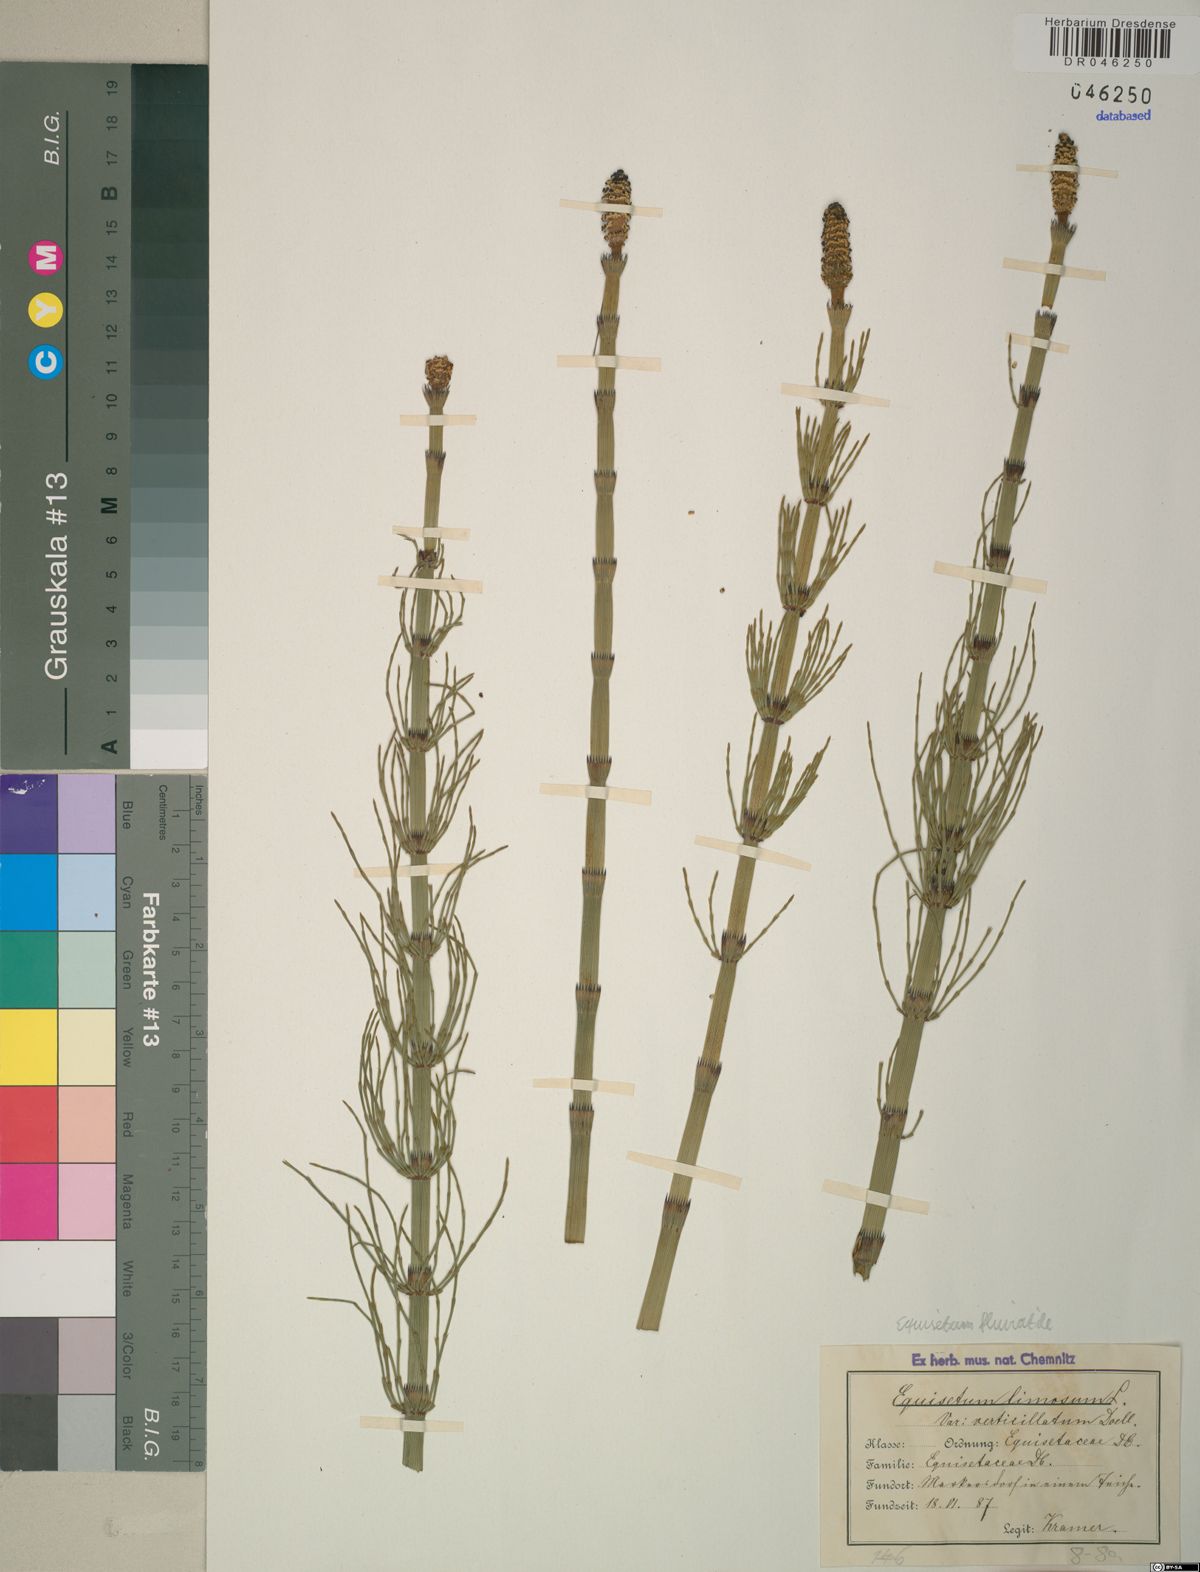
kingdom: Plantae
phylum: Tracheophyta
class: Polypodiopsida
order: Equisetales
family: Equisetaceae
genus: Equisetum
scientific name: Equisetum fluviatile
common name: Water horsetail
